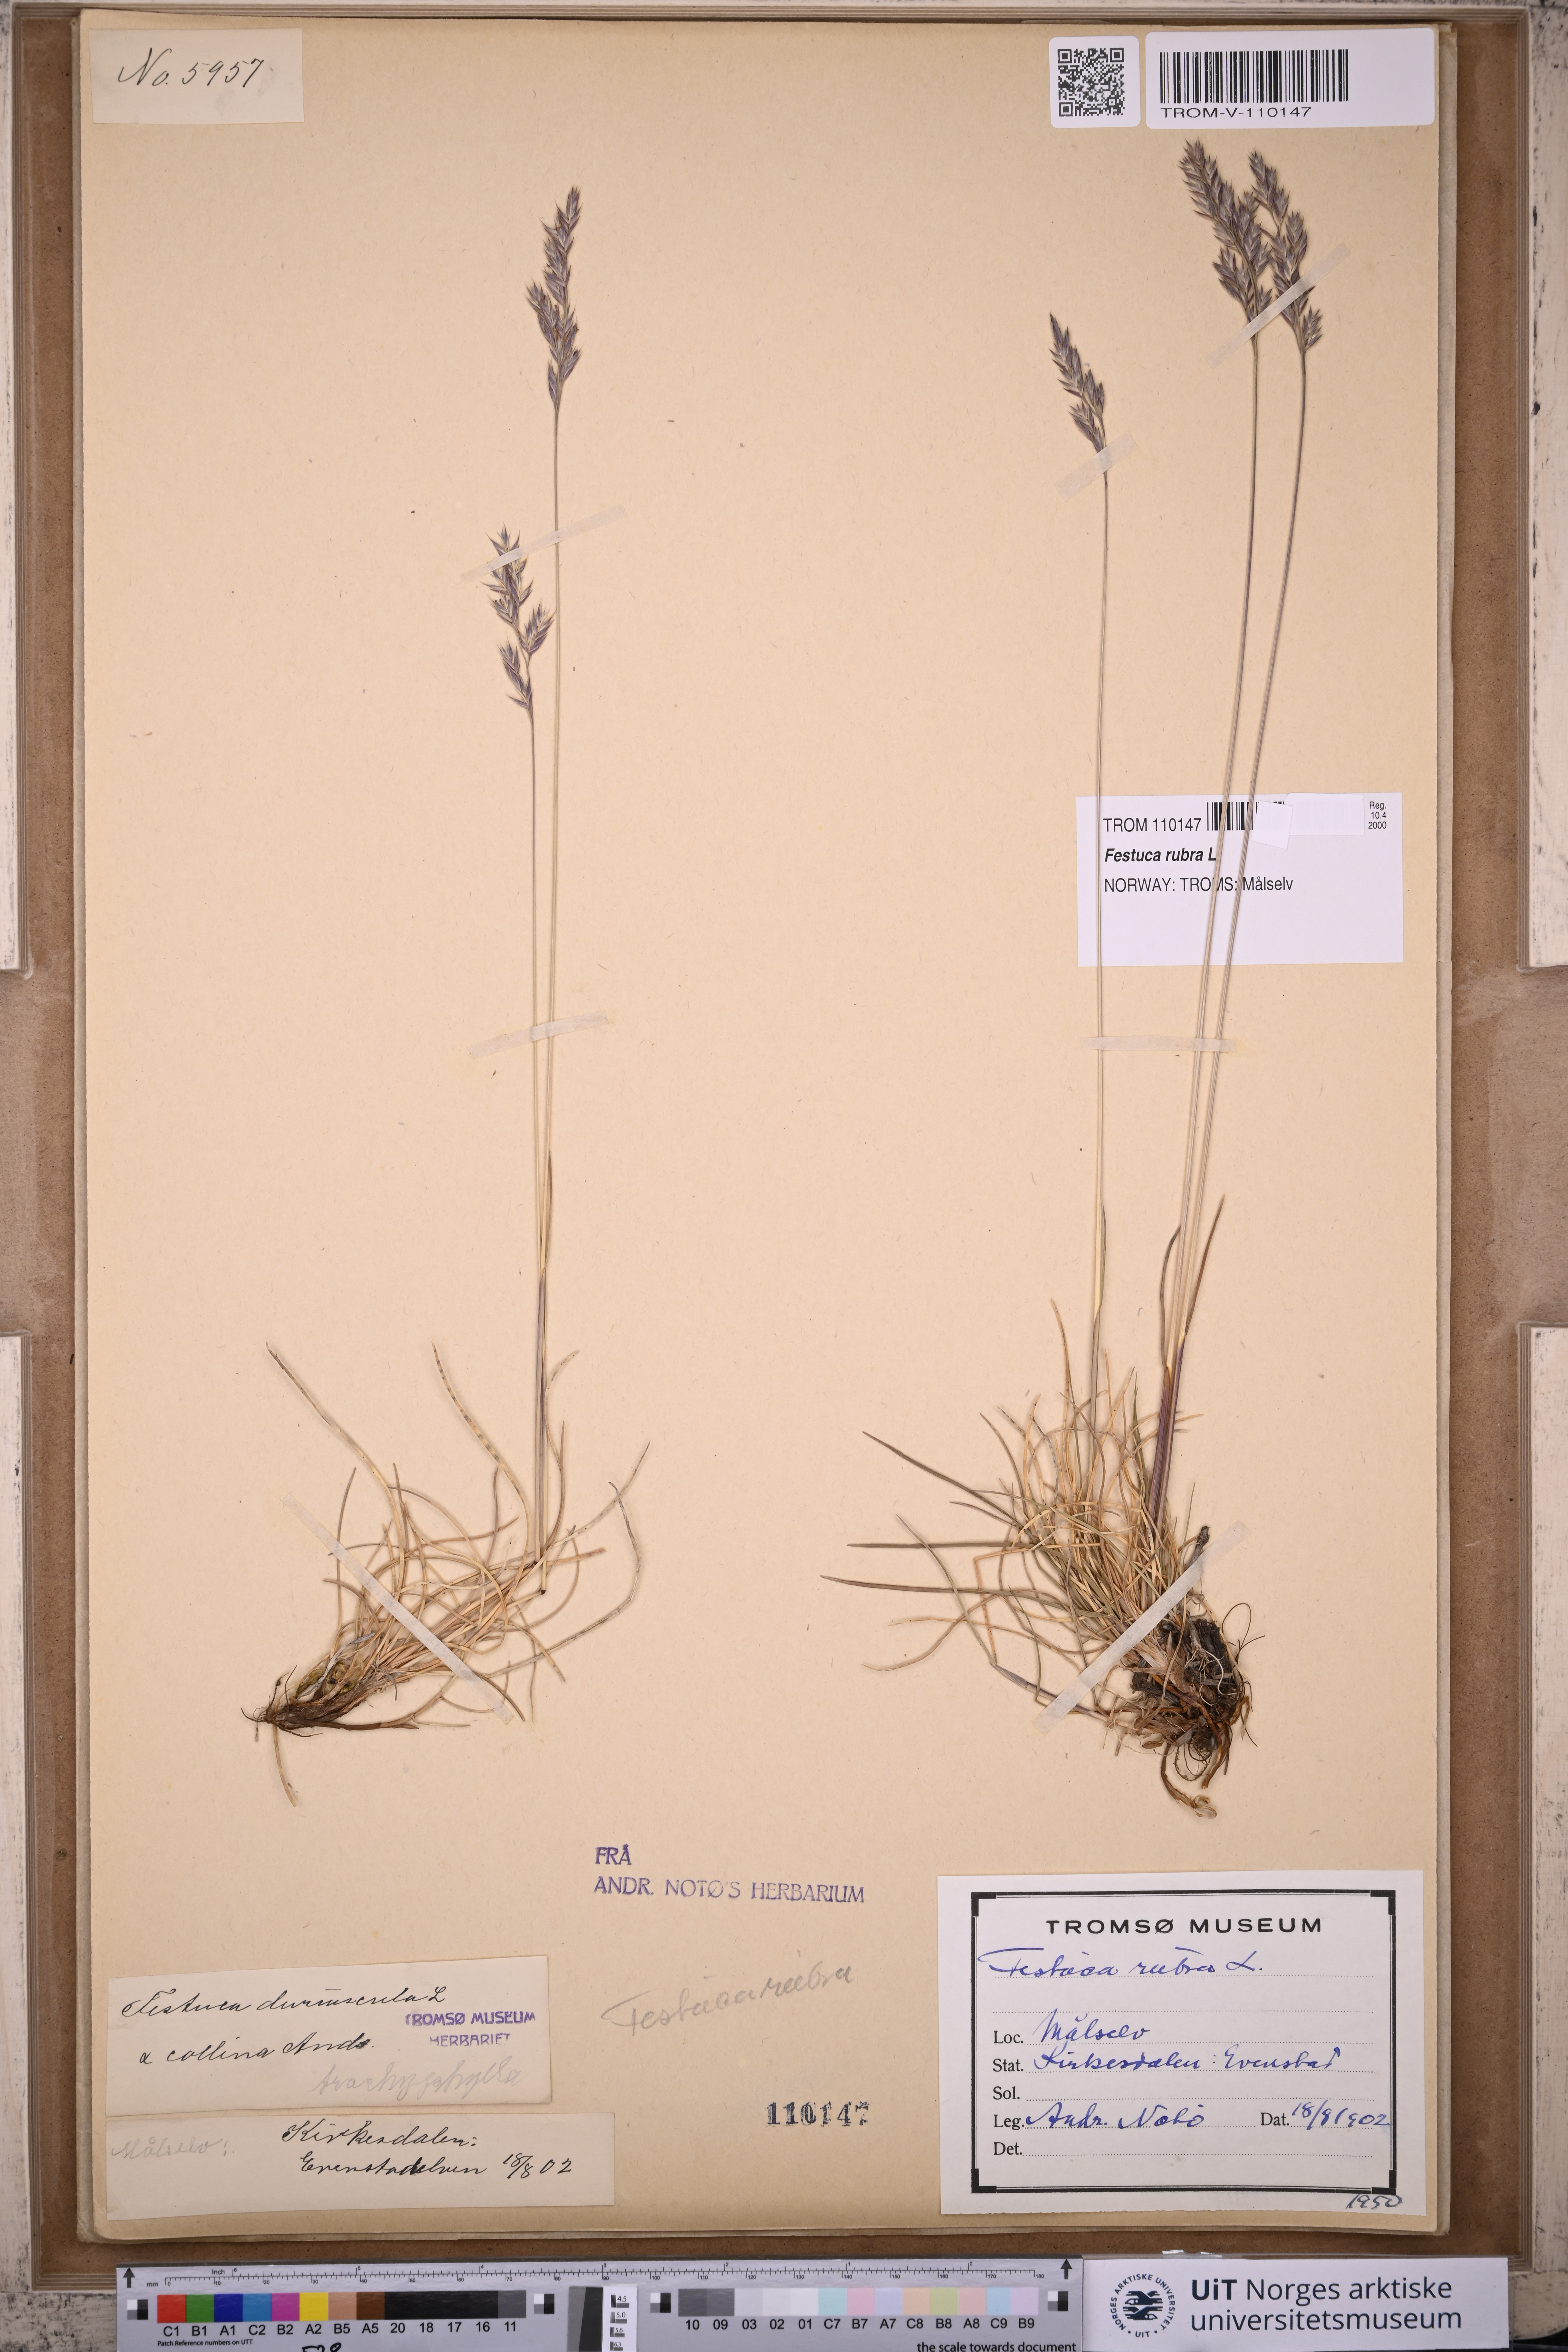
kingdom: Plantae
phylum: Tracheophyta
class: Liliopsida
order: Poales
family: Poaceae
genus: Festuca
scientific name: Festuca rubra
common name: Red fescue
